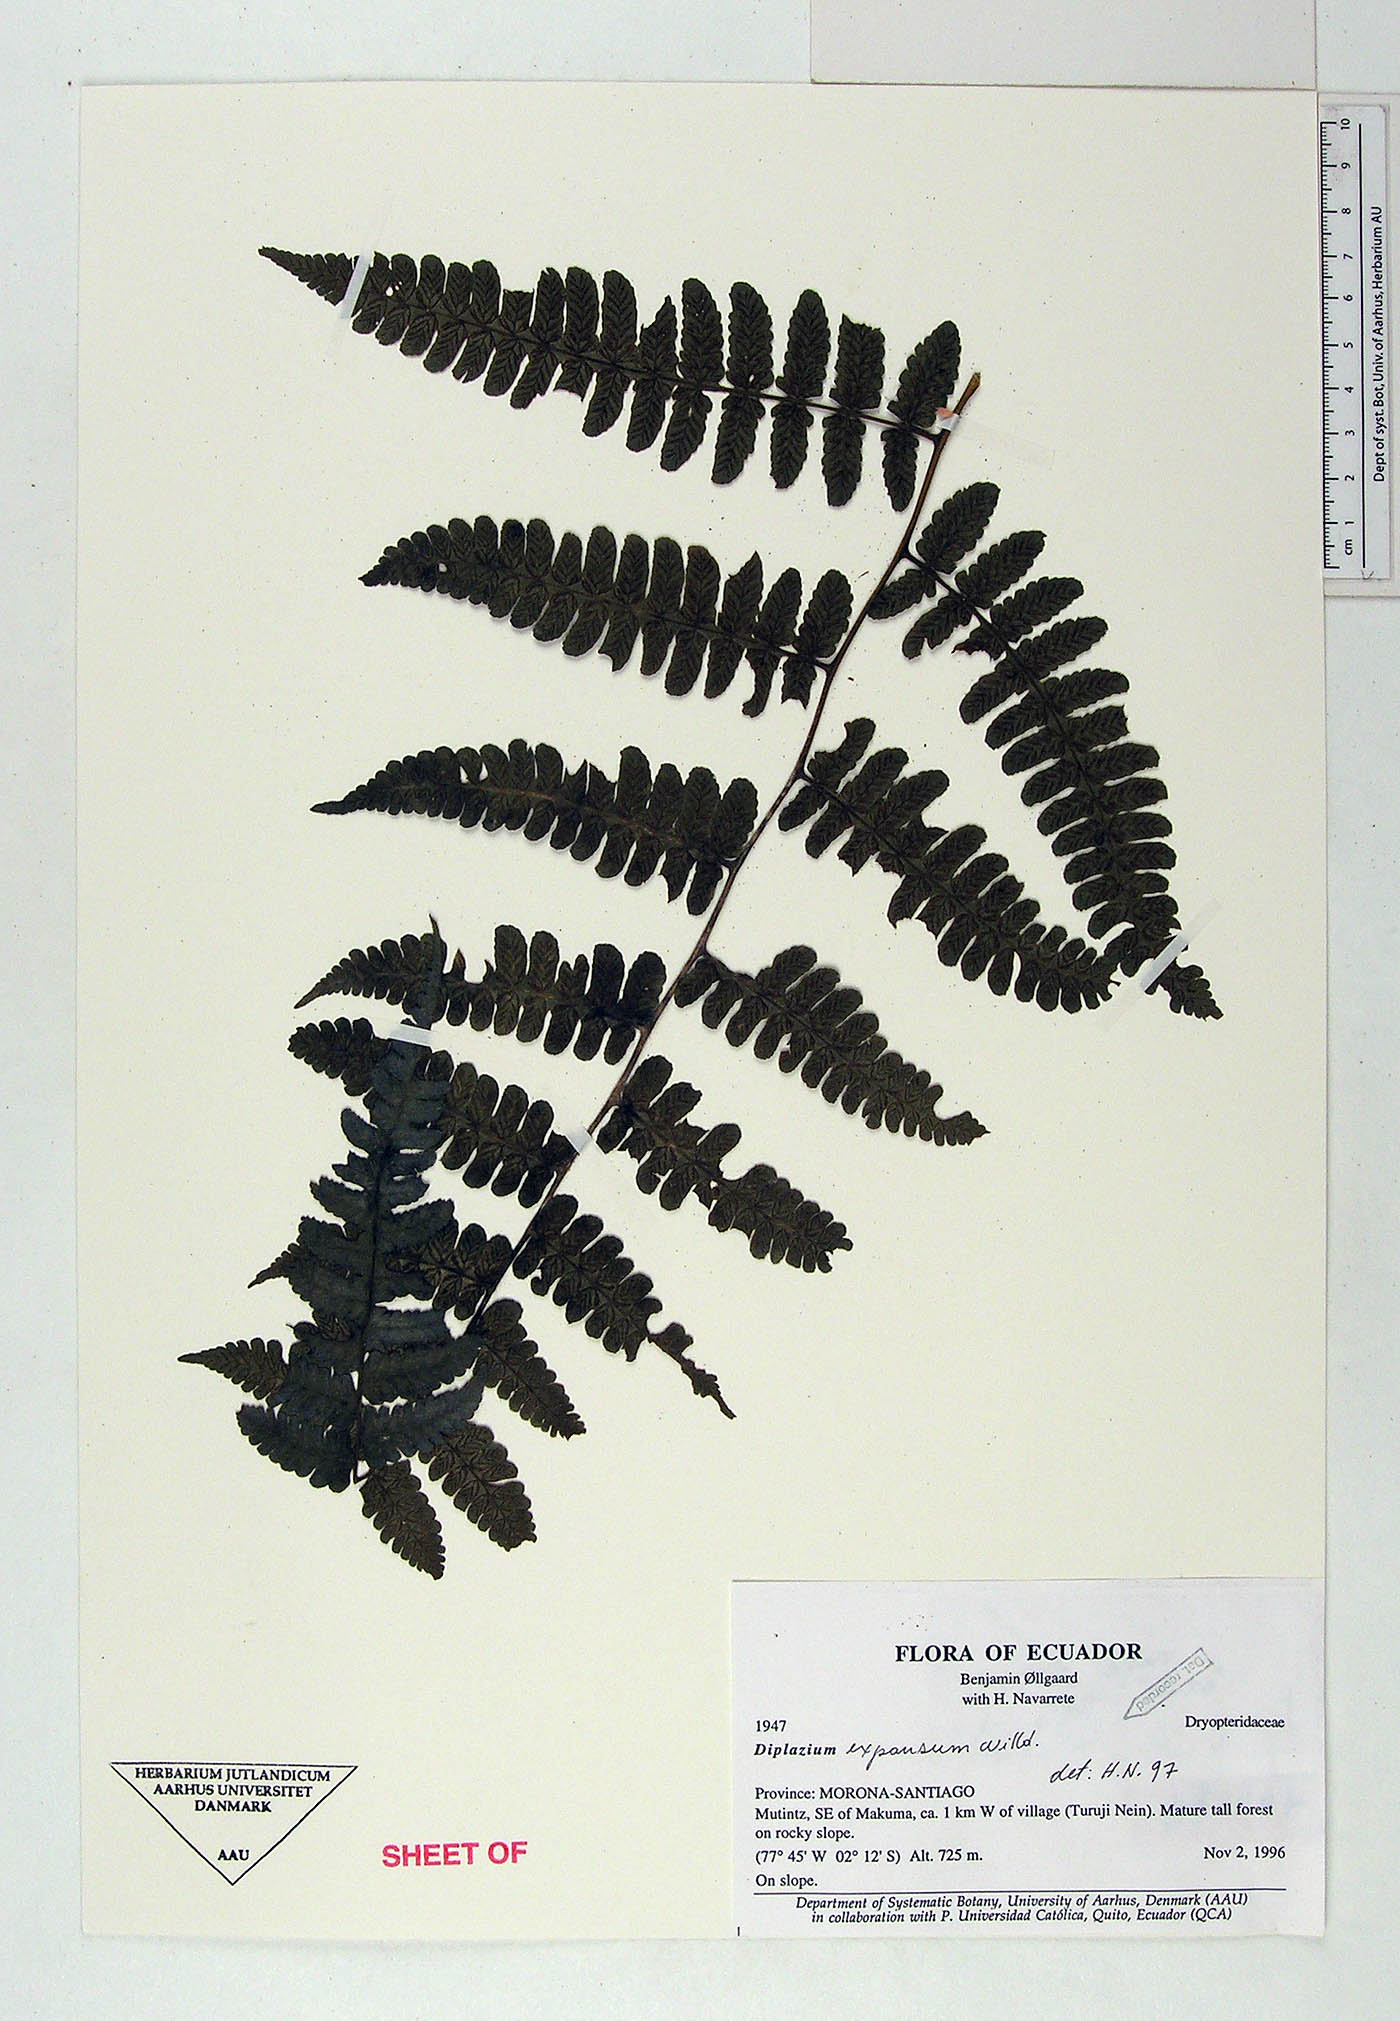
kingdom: Plantae
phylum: Tracheophyta
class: Polypodiopsida
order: Polypodiales
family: Athyriaceae
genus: Diplazium
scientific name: Diplazium expansum
